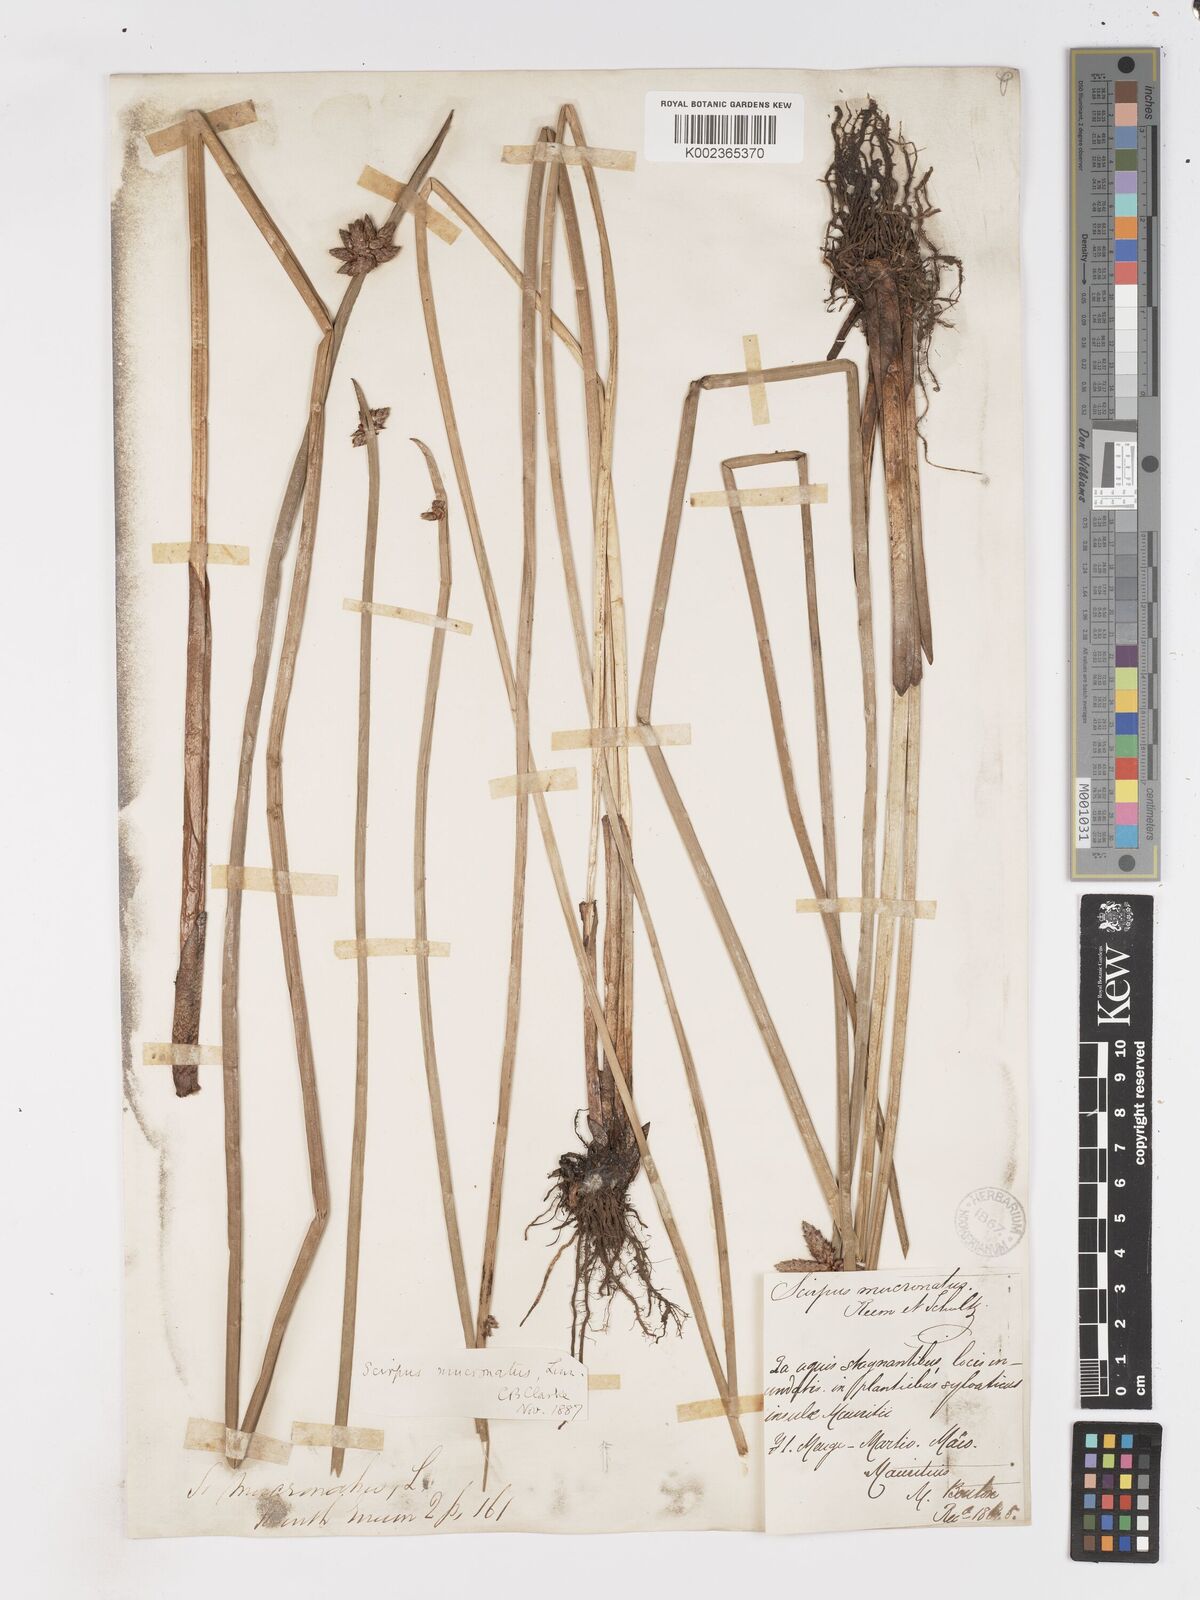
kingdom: Plantae
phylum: Tracheophyta
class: Liliopsida
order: Poales
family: Cyperaceae
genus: Schoenoplectiella
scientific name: Schoenoplectiella mucronata
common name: Bog bulrush
